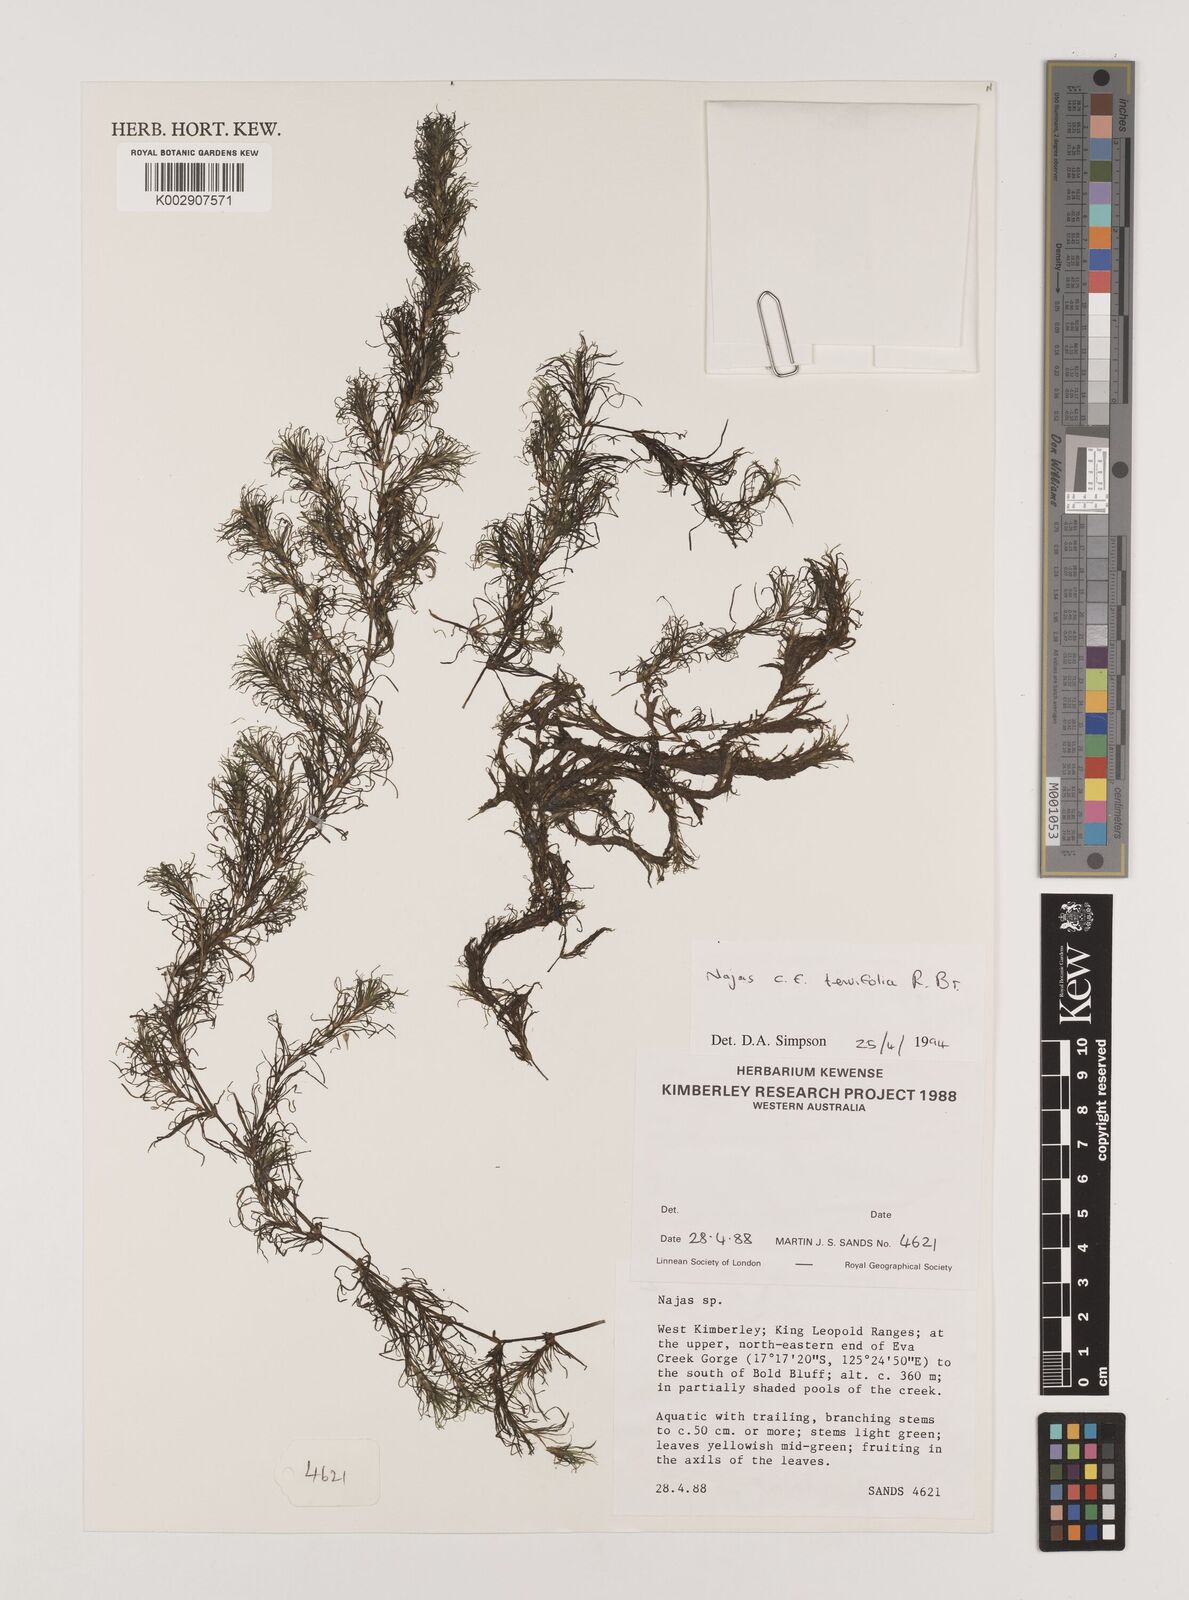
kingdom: Plantae
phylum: Tracheophyta
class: Liliopsida
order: Alismatales
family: Hydrocharitaceae
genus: Najas
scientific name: Najas tenuifolia
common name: Thin-leaved naiad
